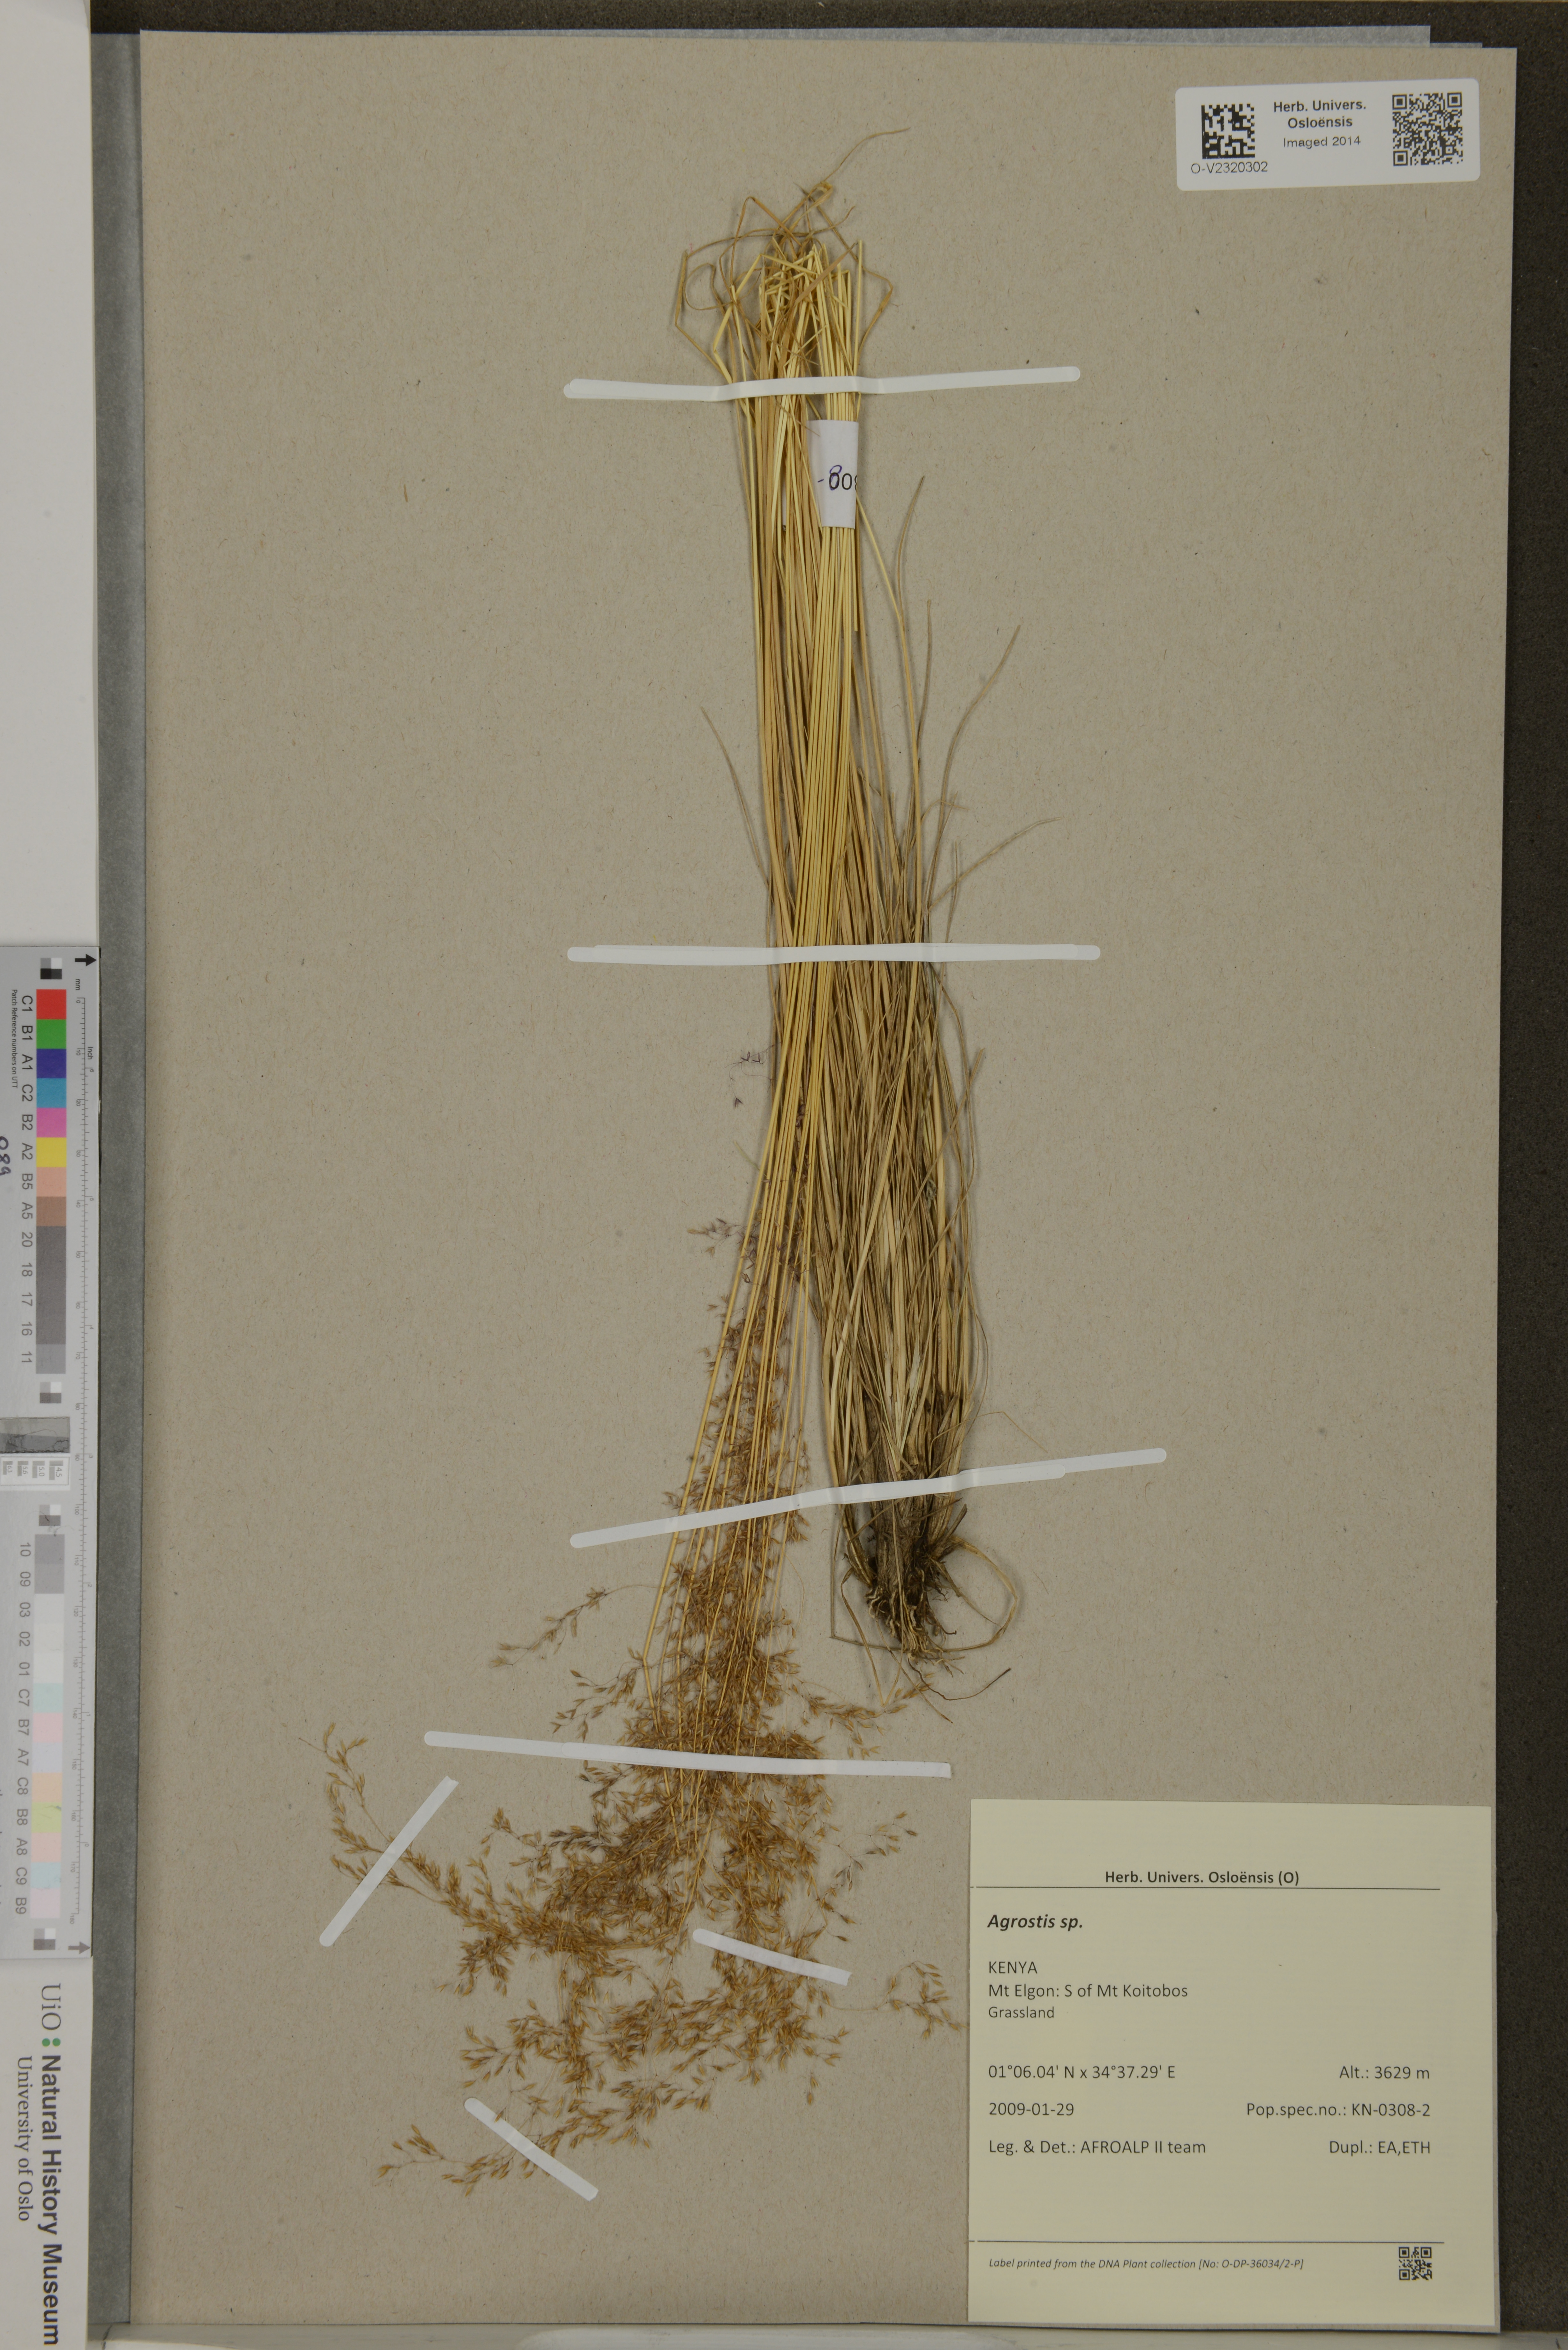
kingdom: Plantae
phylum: Tracheophyta
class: Liliopsida
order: Poales
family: Poaceae
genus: Agrostis
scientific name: Agrostis
